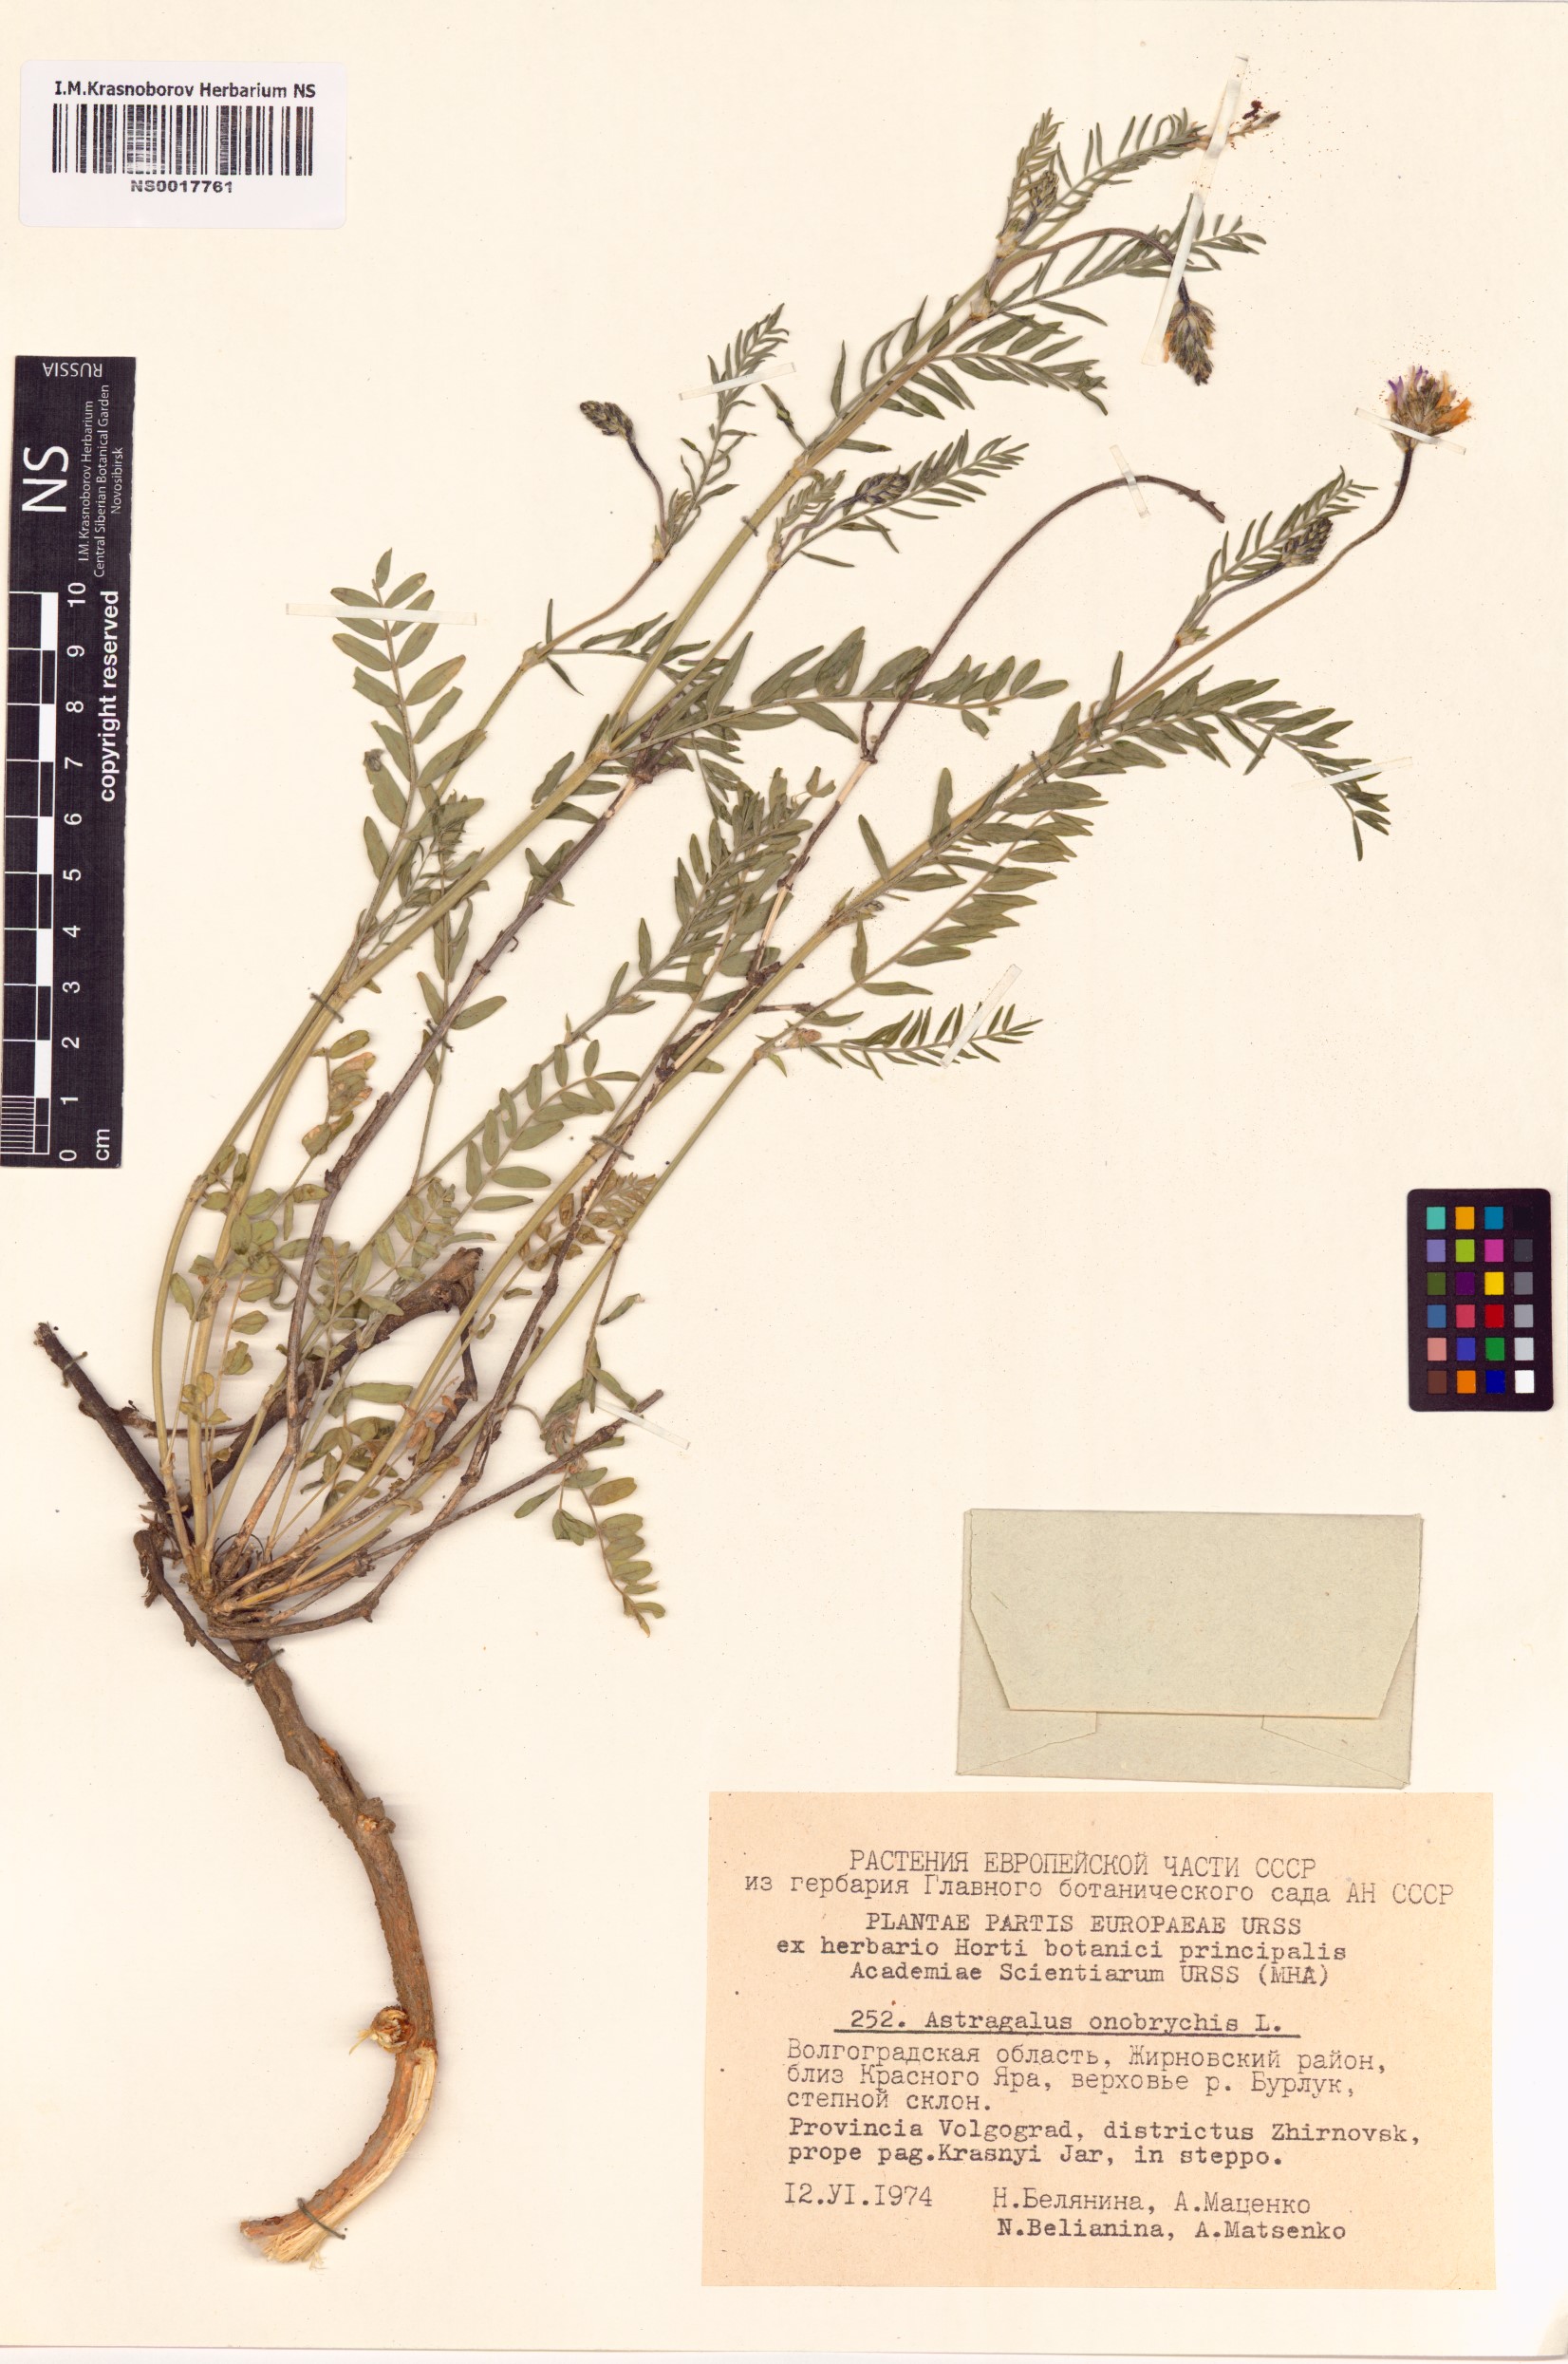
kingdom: Plantae
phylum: Tracheophyta
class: Magnoliopsida
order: Fabales
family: Fabaceae
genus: Astragalus
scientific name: Astragalus onobrychis
